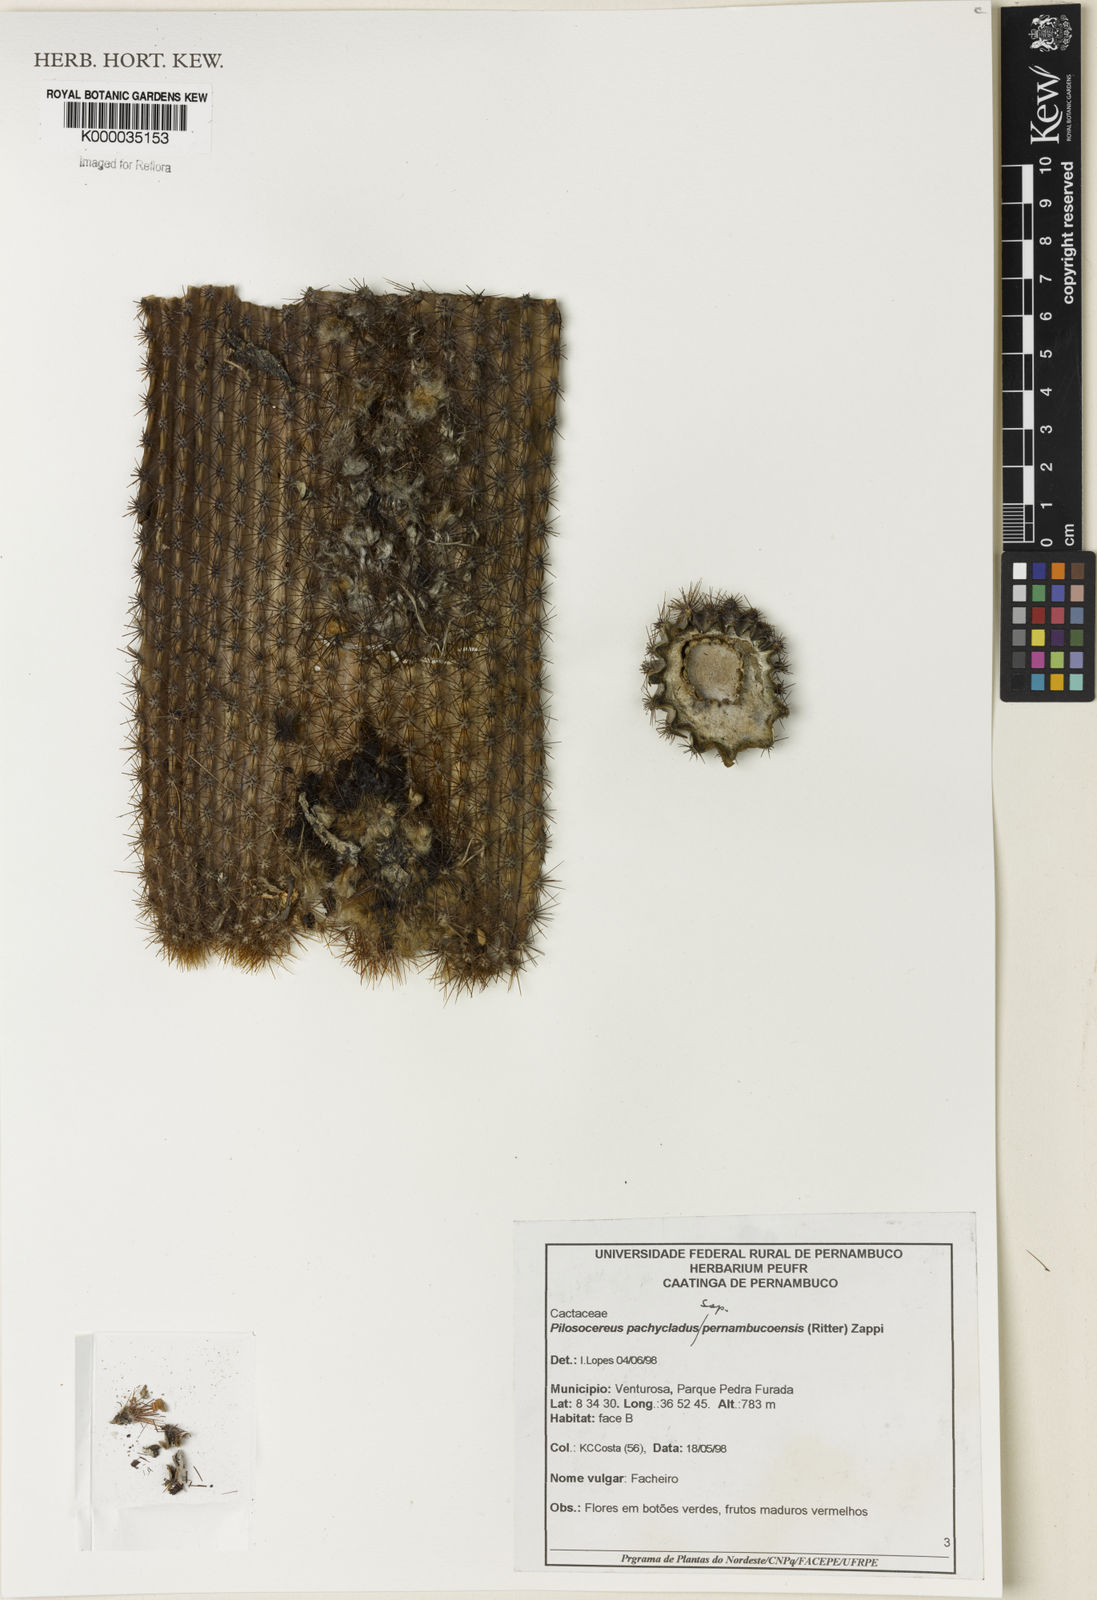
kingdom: Plantae
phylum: Tracheophyta
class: Magnoliopsida
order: Caryophyllales
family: Cactaceae
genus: Pilosocereus
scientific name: Pilosocereus pachycladus
